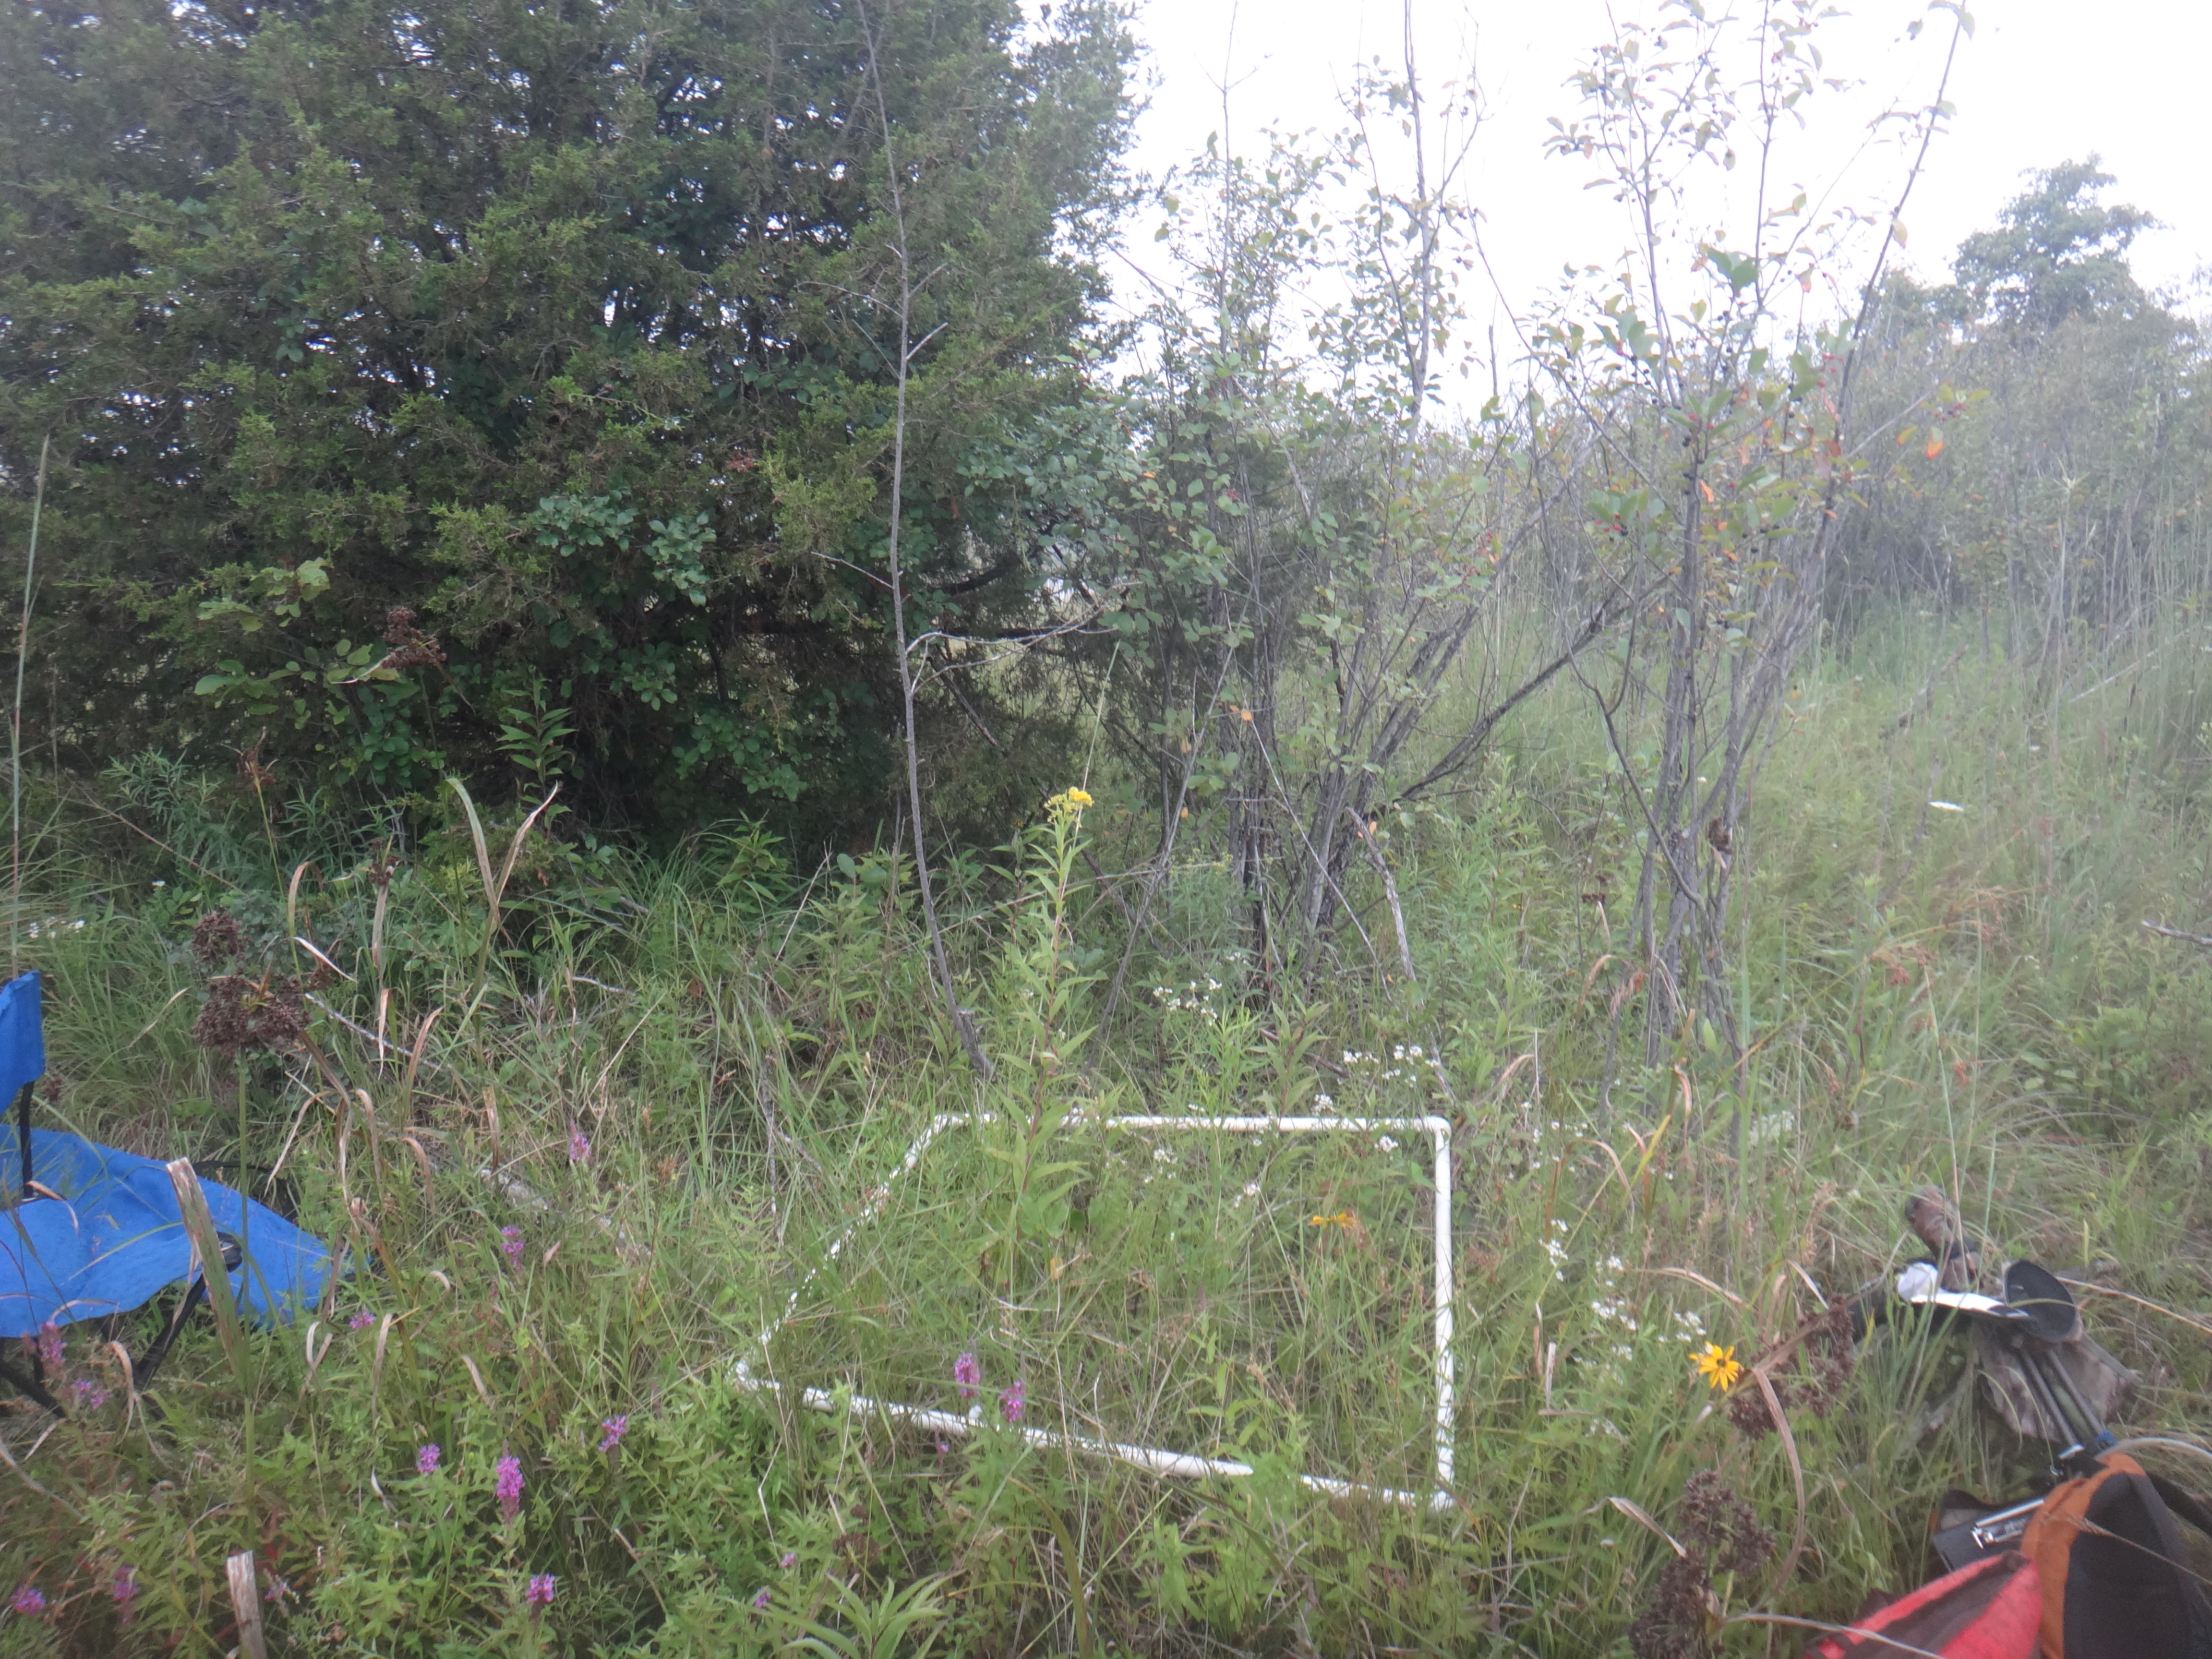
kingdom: Plantae
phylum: Tracheophyta
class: Magnoliopsida
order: Asterales
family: Asteraceae
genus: Symphyotrichum
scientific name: Symphyotrichum
